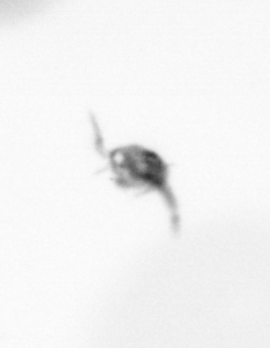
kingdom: Animalia
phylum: Arthropoda
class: Copepoda
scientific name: Copepoda
